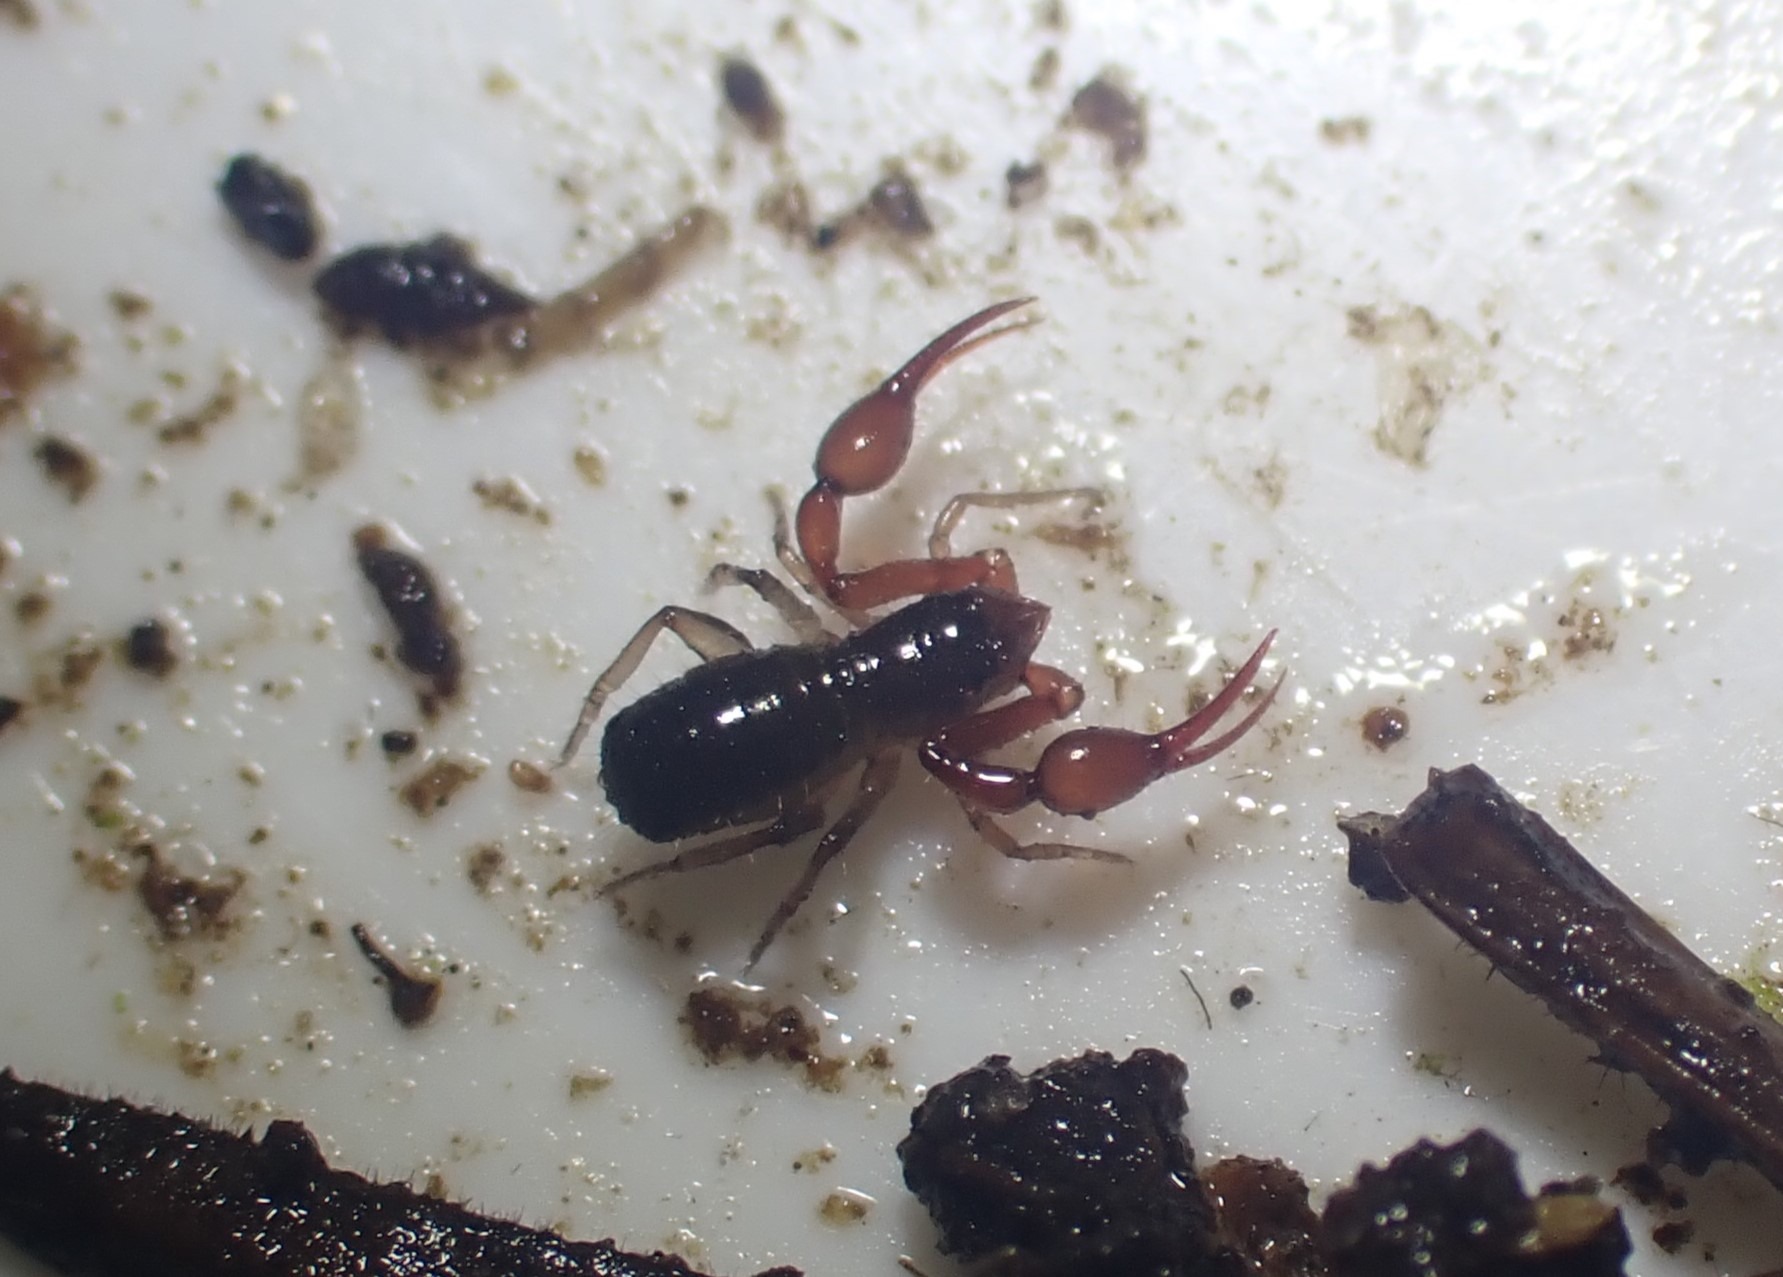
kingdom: Animalia
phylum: Arthropoda
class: Arachnida
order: Pseudoscorpiones
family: Neobisiidae
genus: Neobisium
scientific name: Neobisium carcinoides
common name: Almindelig mosskorpion
